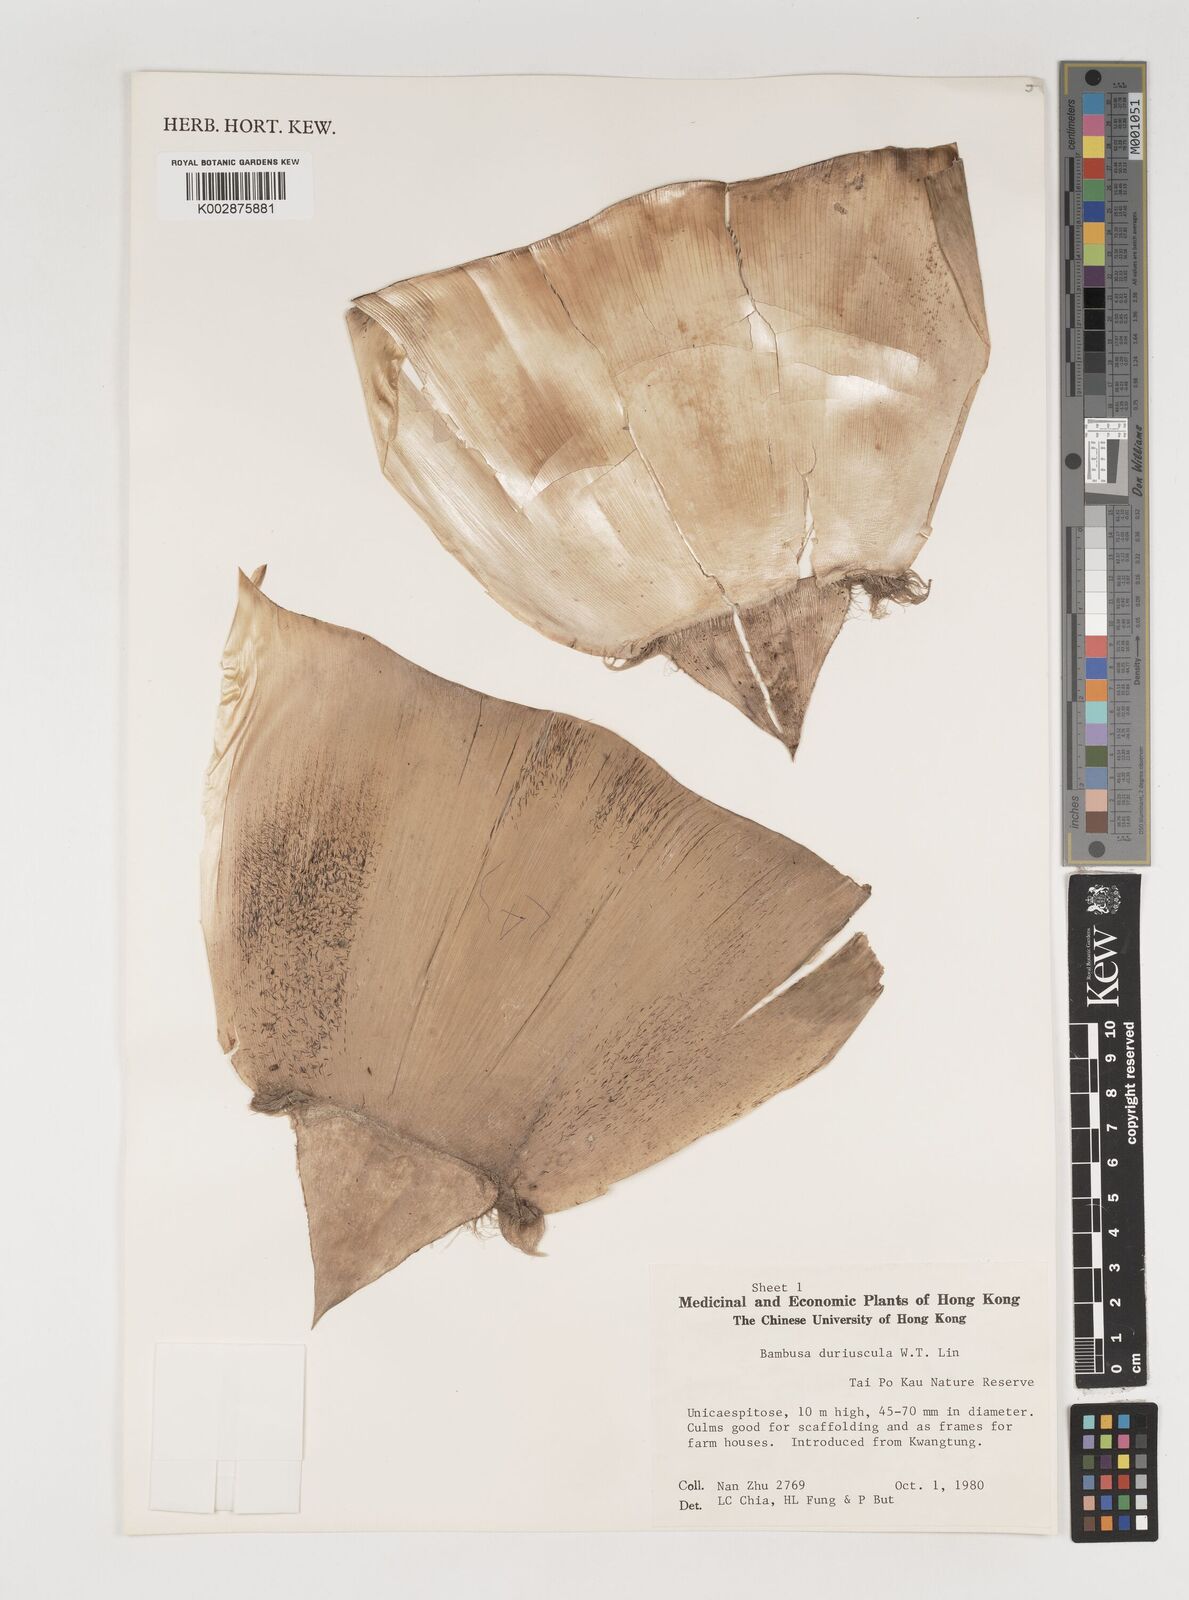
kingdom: Plantae
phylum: Tracheophyta
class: Liliopsida
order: Poales
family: Poaceae
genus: Bambusa
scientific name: Bambusa duriuscula
